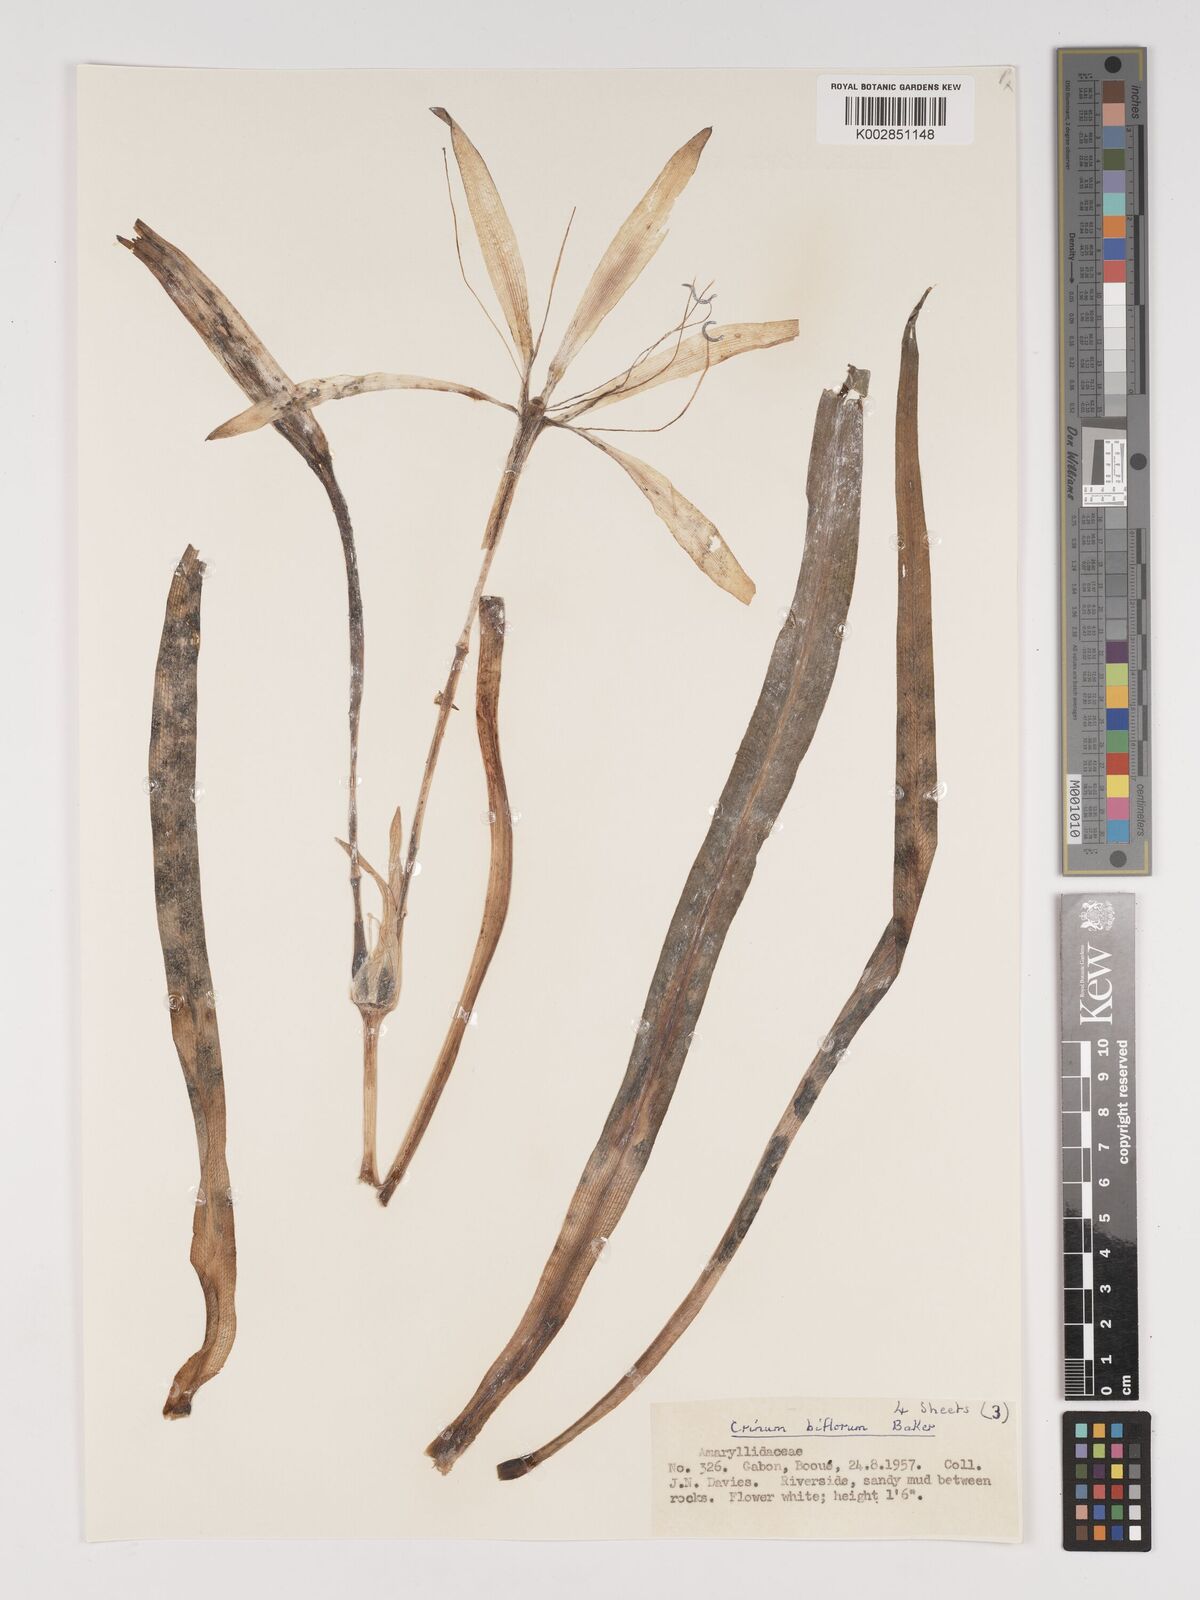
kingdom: Plantae
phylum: Tracheophyta
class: Liliopsida
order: Asparagales
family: Amaryllidaceae
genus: Crinum
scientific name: Crinum nordaliae
